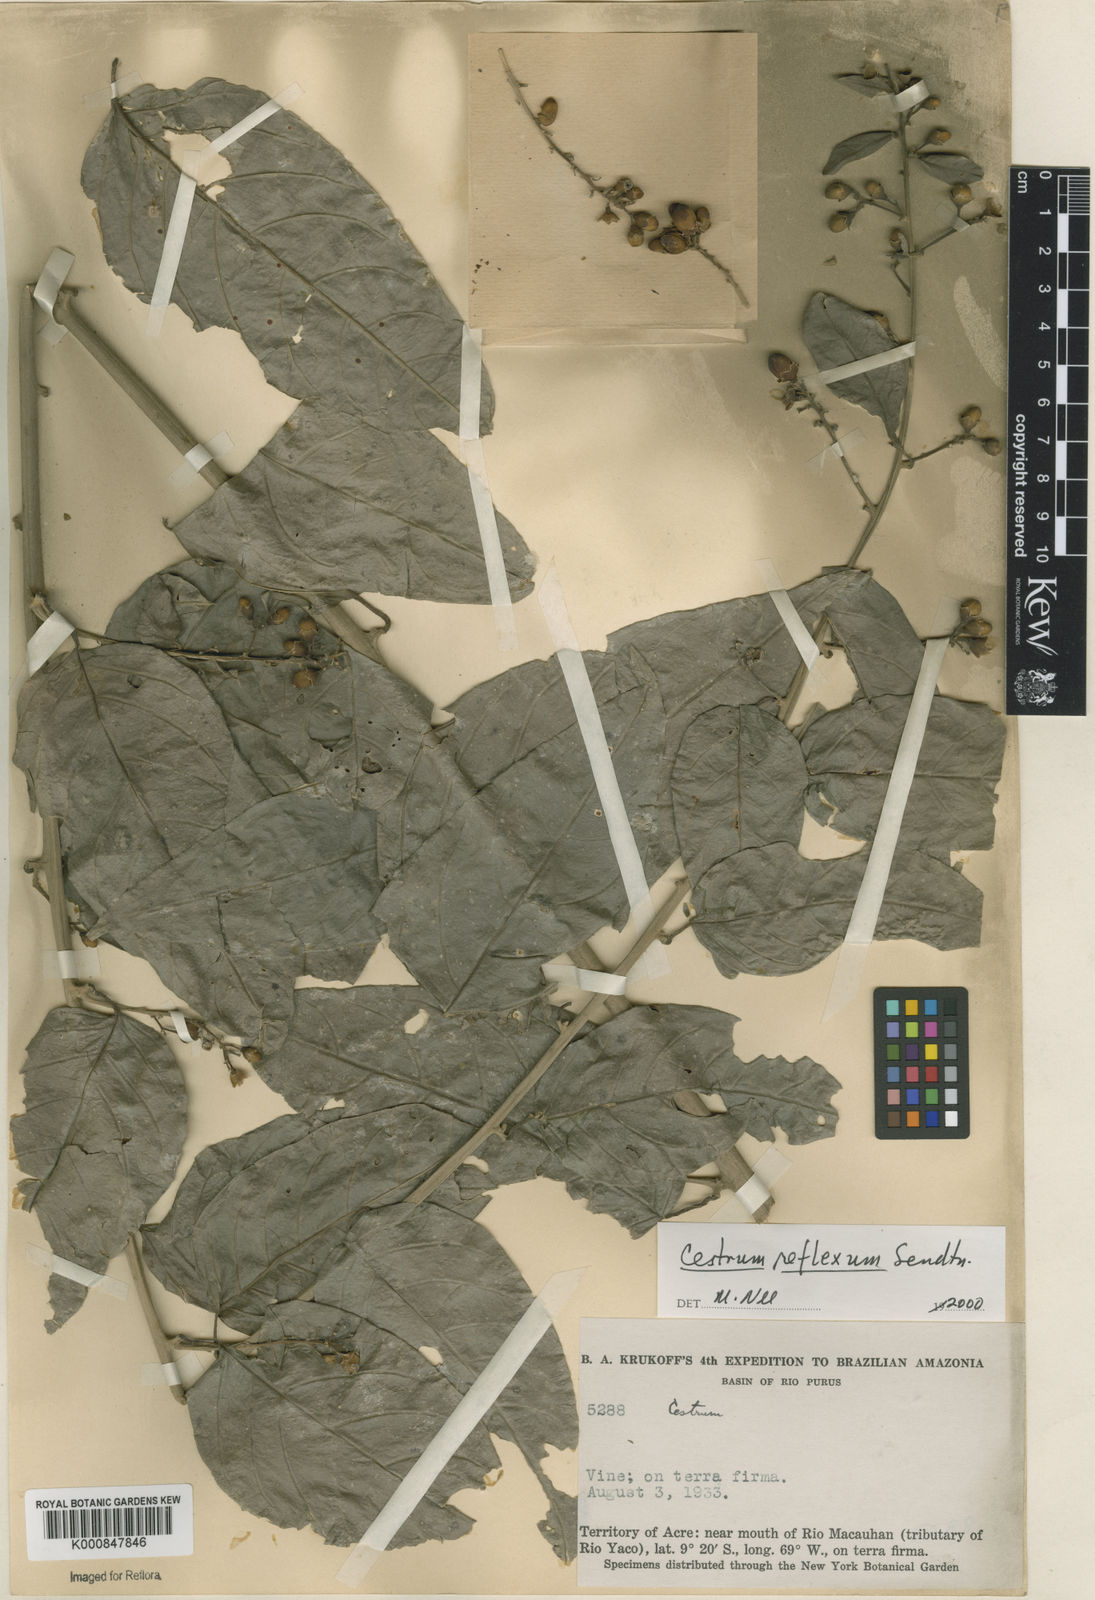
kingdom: Plantae
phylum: Tracheophyta
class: Magnoliopsida
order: Solanales
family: Solanaceae
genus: Cestrum
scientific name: Cestrum reflexum
